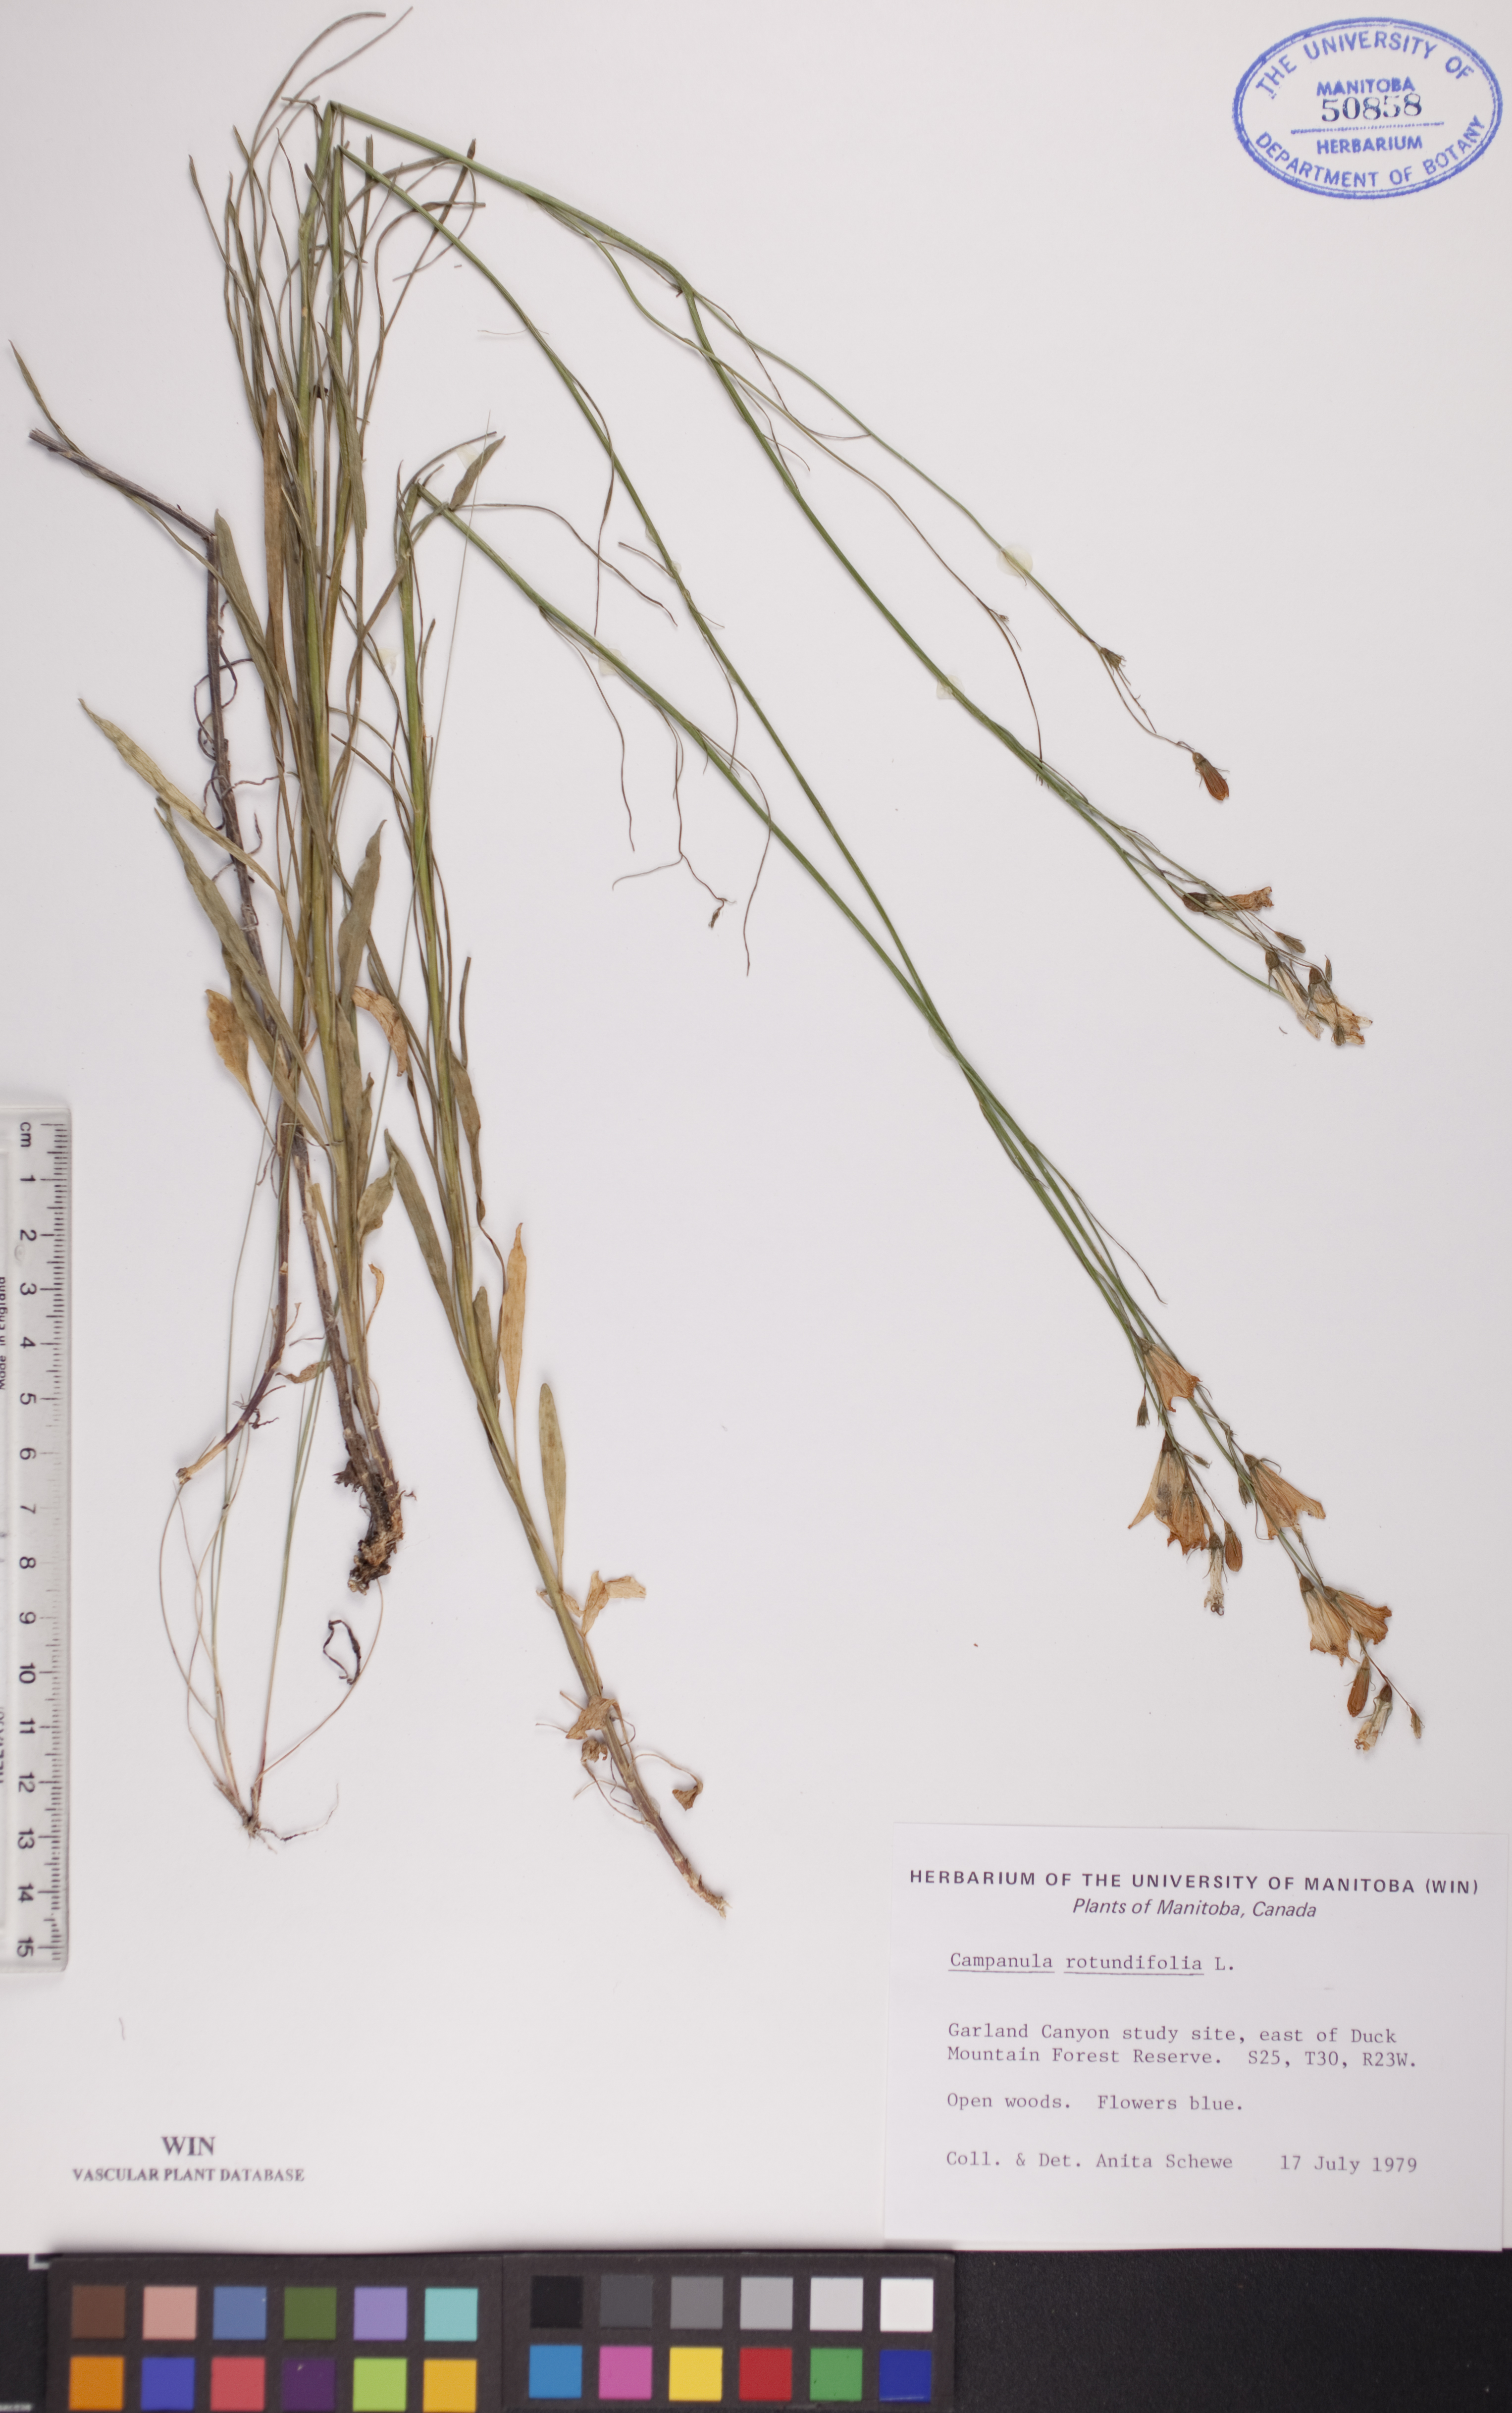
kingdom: Plantae
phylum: Tracheophyta
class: Magnoliopsida
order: Asterales
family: Campanulaceae
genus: Campanula
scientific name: Campanula rotundifolia
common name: Harebell
